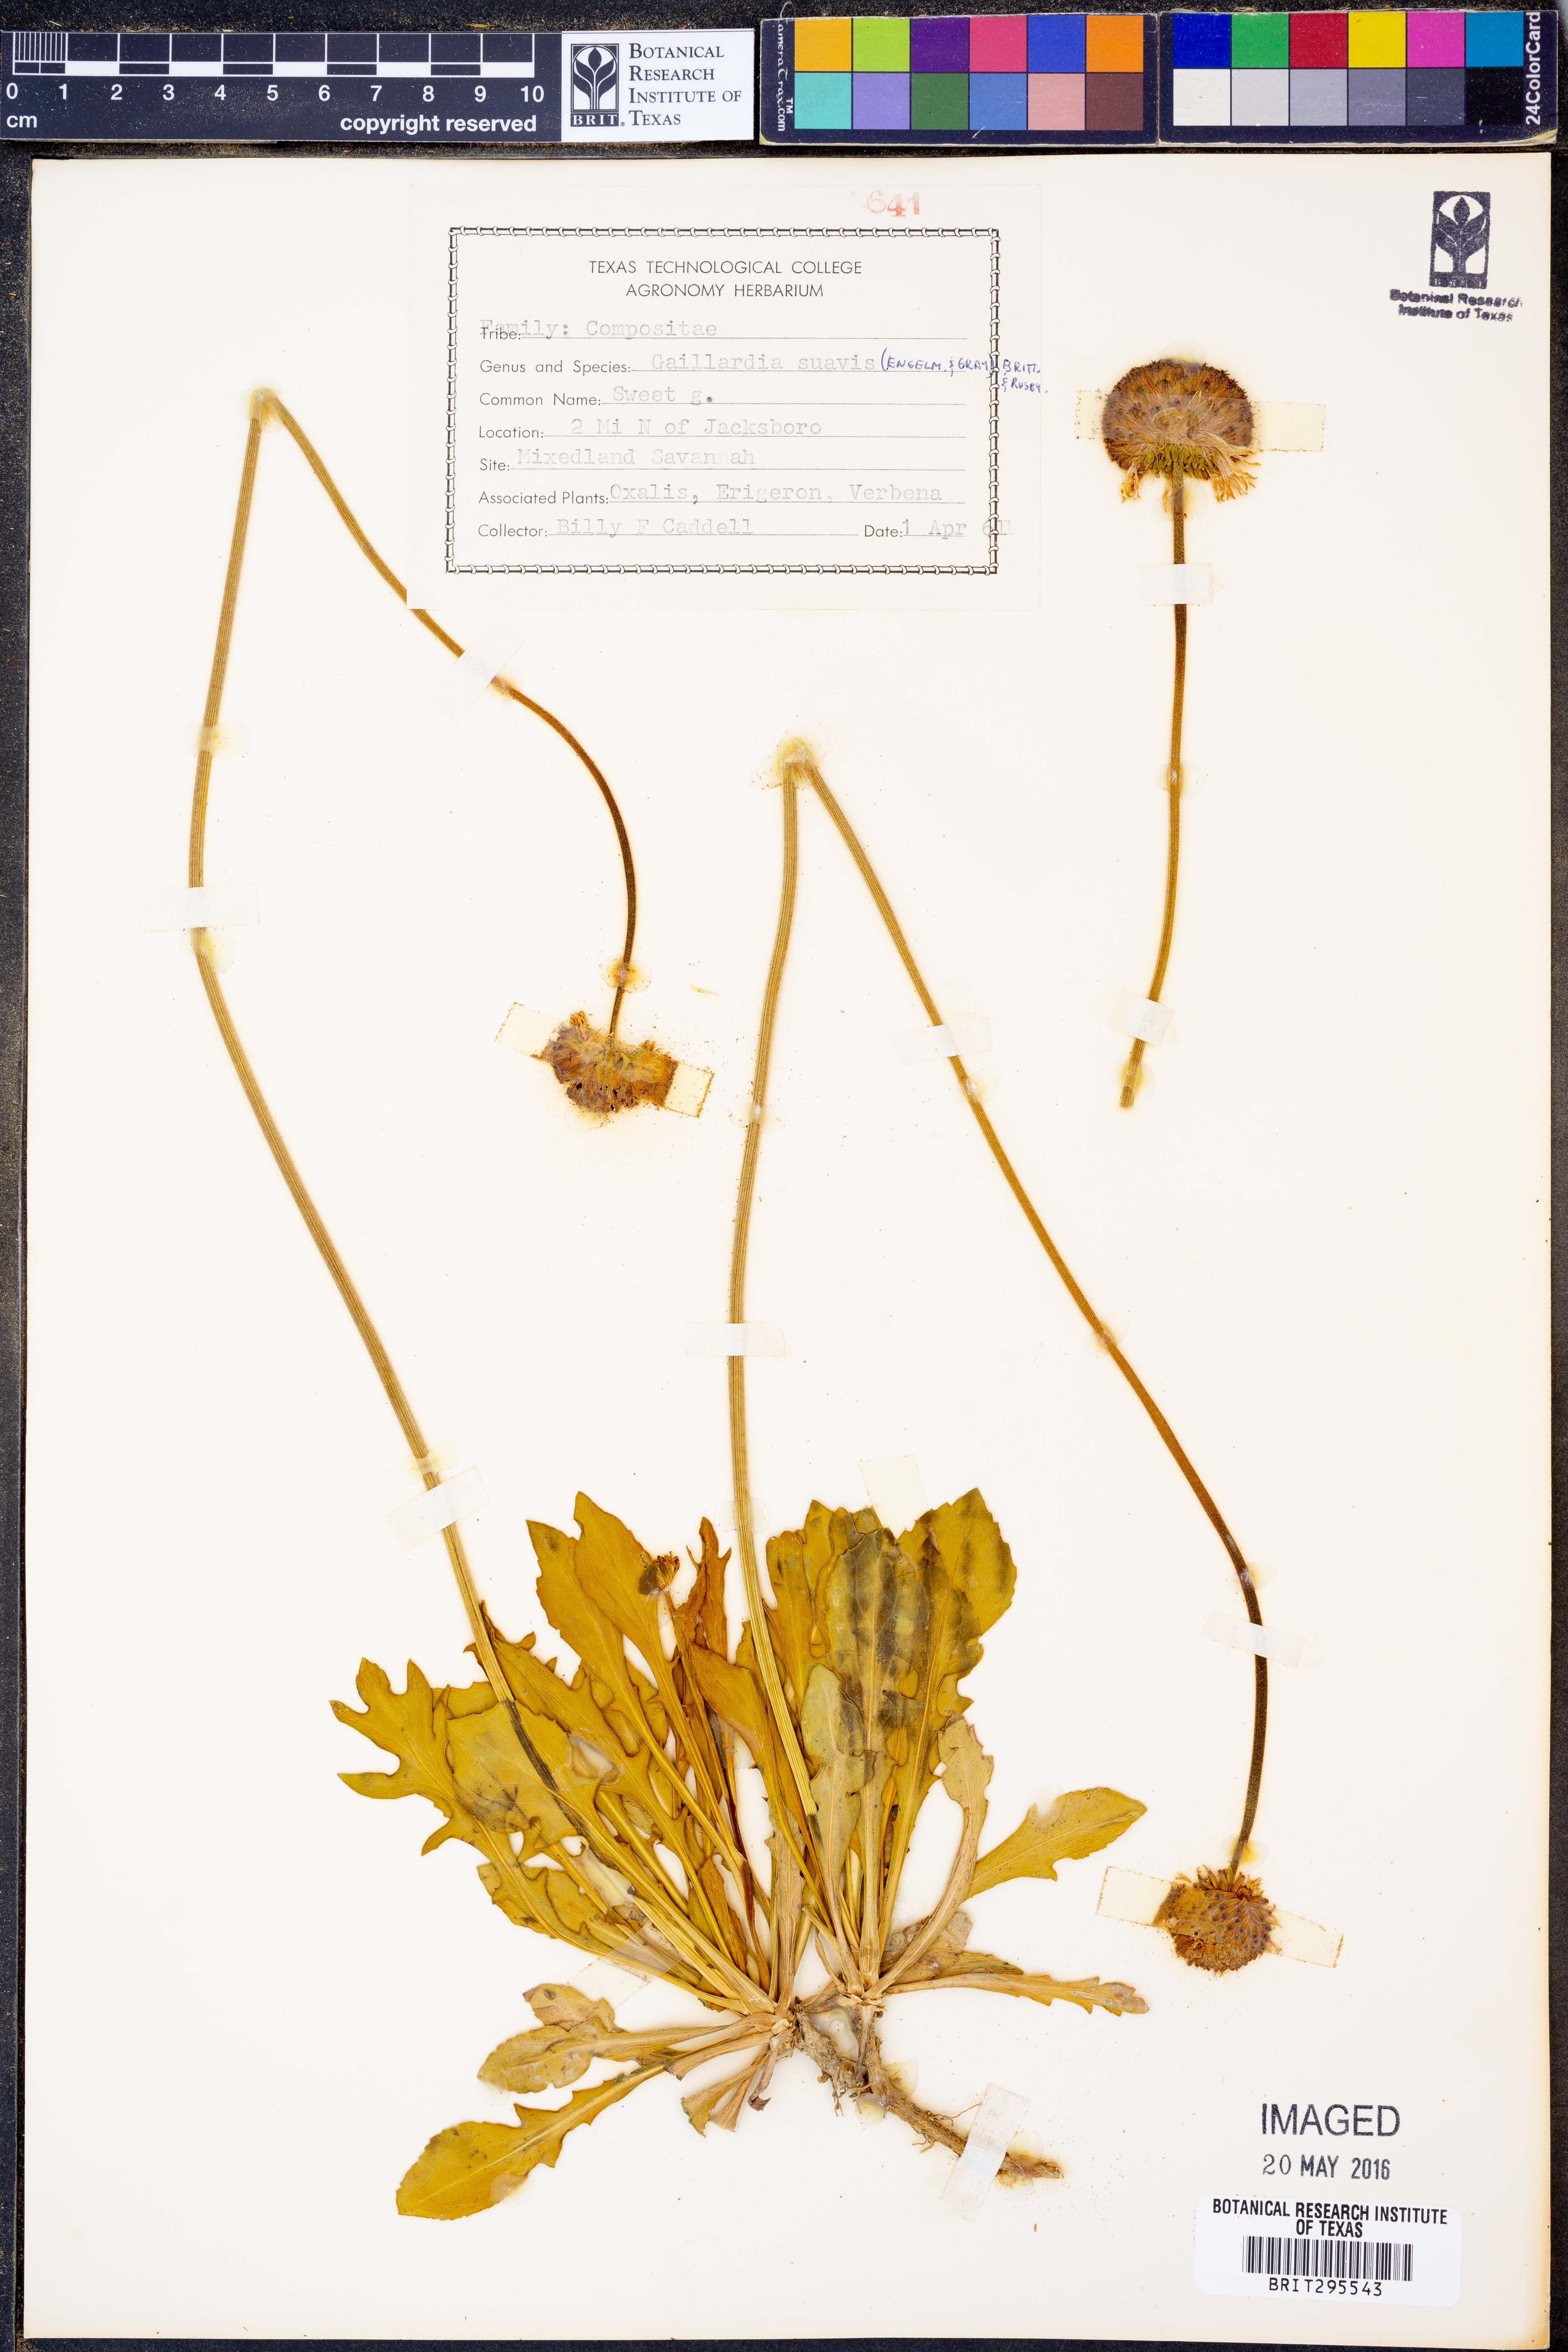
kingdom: Plantae
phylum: Tracheophyta
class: Magnoliopsida
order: Asterales
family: Asteraceae
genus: Gaillardia
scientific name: Gaillardia suavis
